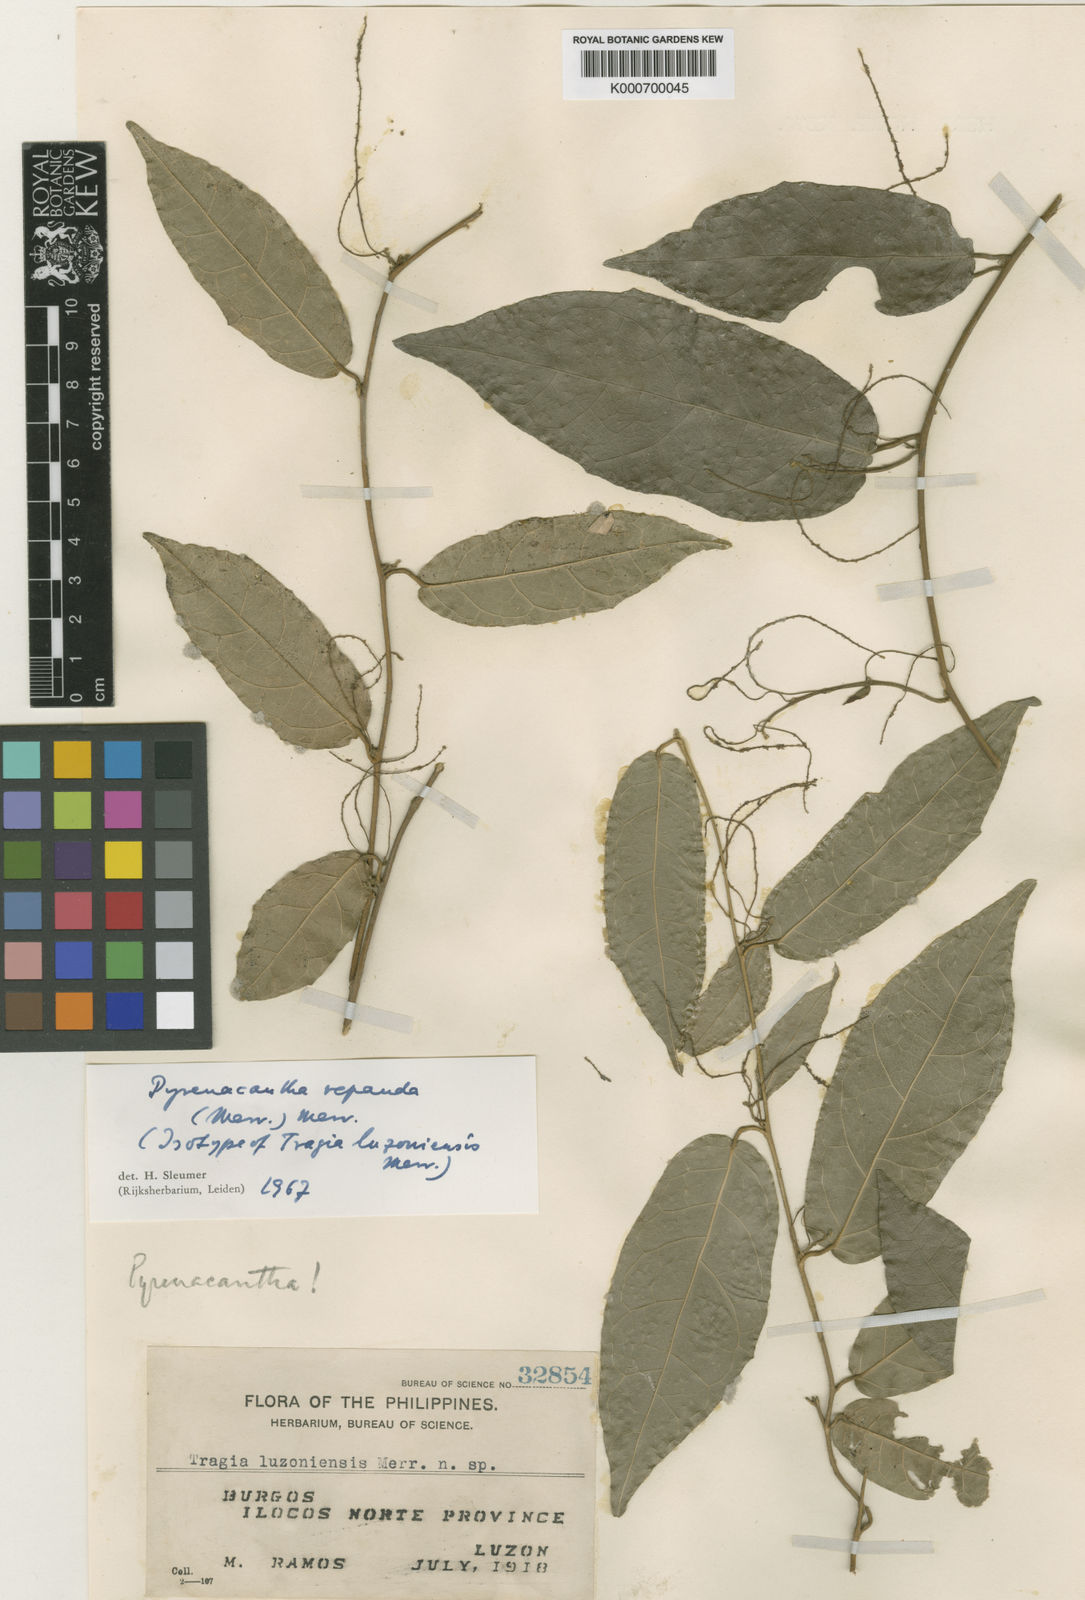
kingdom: Plantae
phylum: Tracheophyta
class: Magnoliopsida
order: Icacinales
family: Icacinaceae
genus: Pyrenacantha
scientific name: Pyrenacantha repanda
